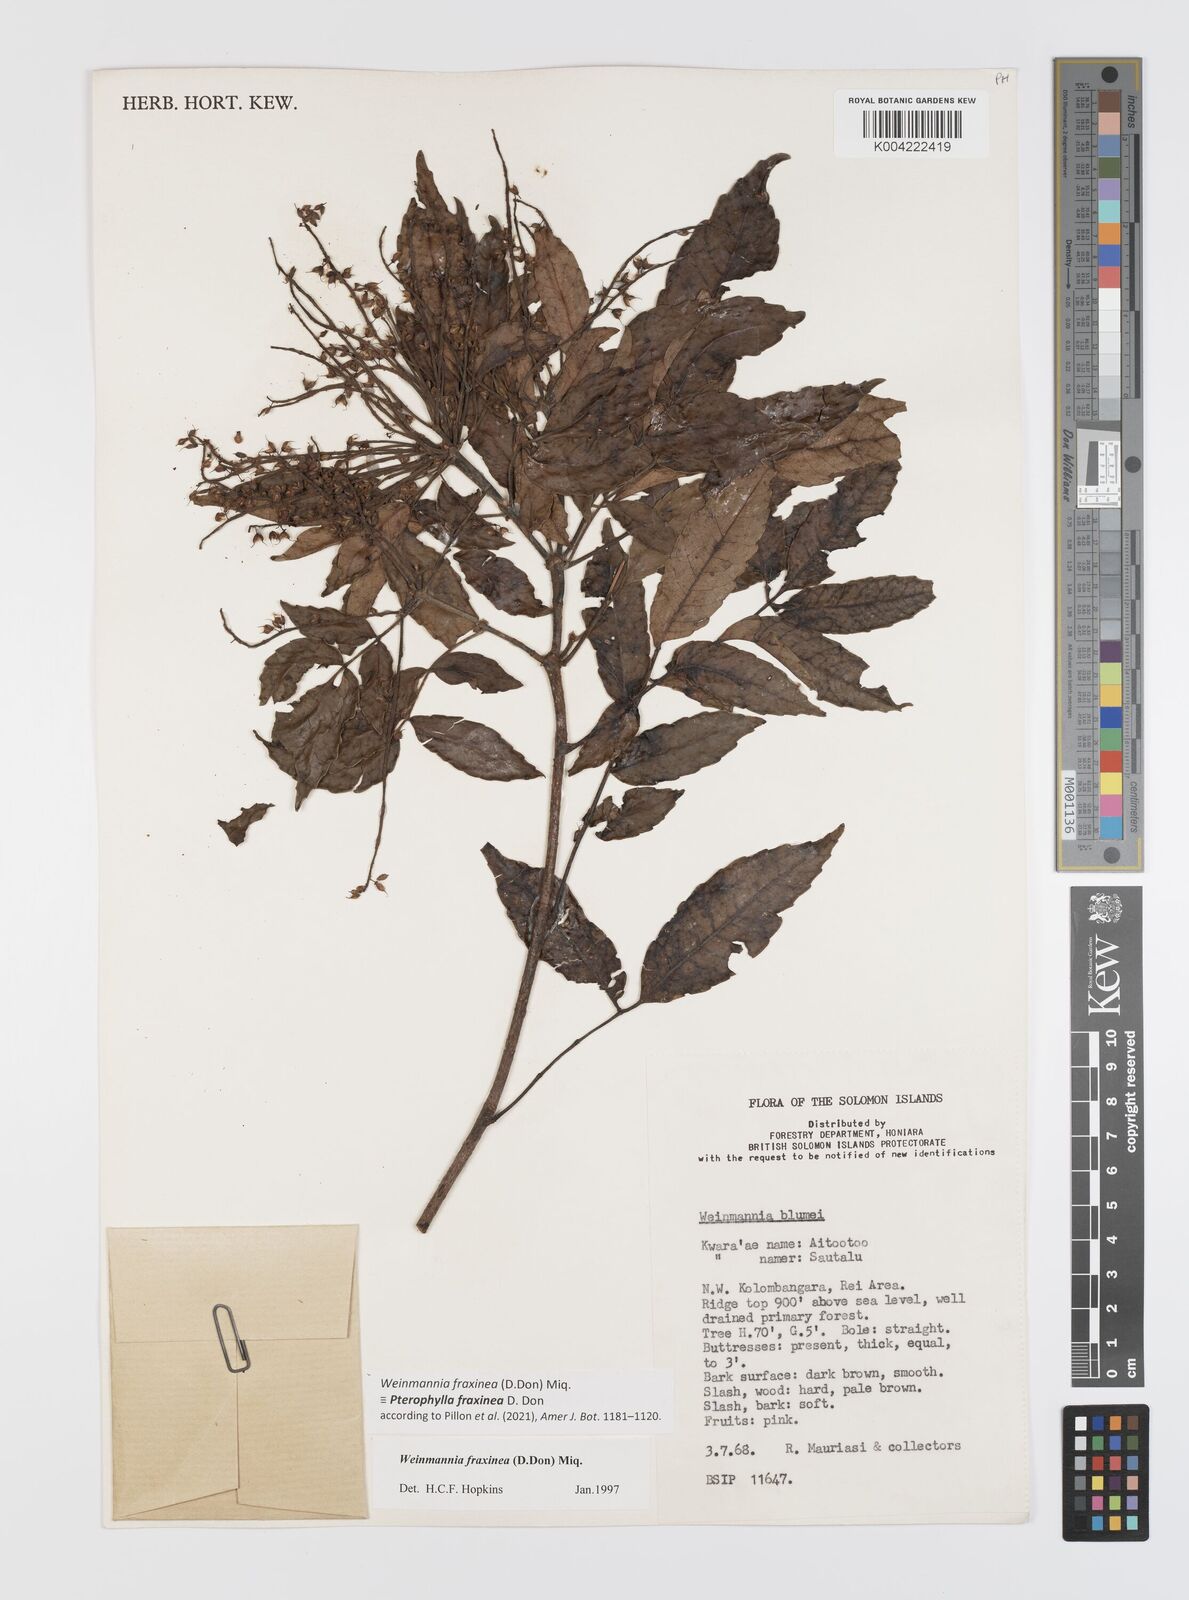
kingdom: Plantae
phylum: Tracheophyta
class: Magnoliopsida
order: Oxalidales
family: Cunoniaceae
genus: Pterophylla
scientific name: Pterophylla fraxinea
